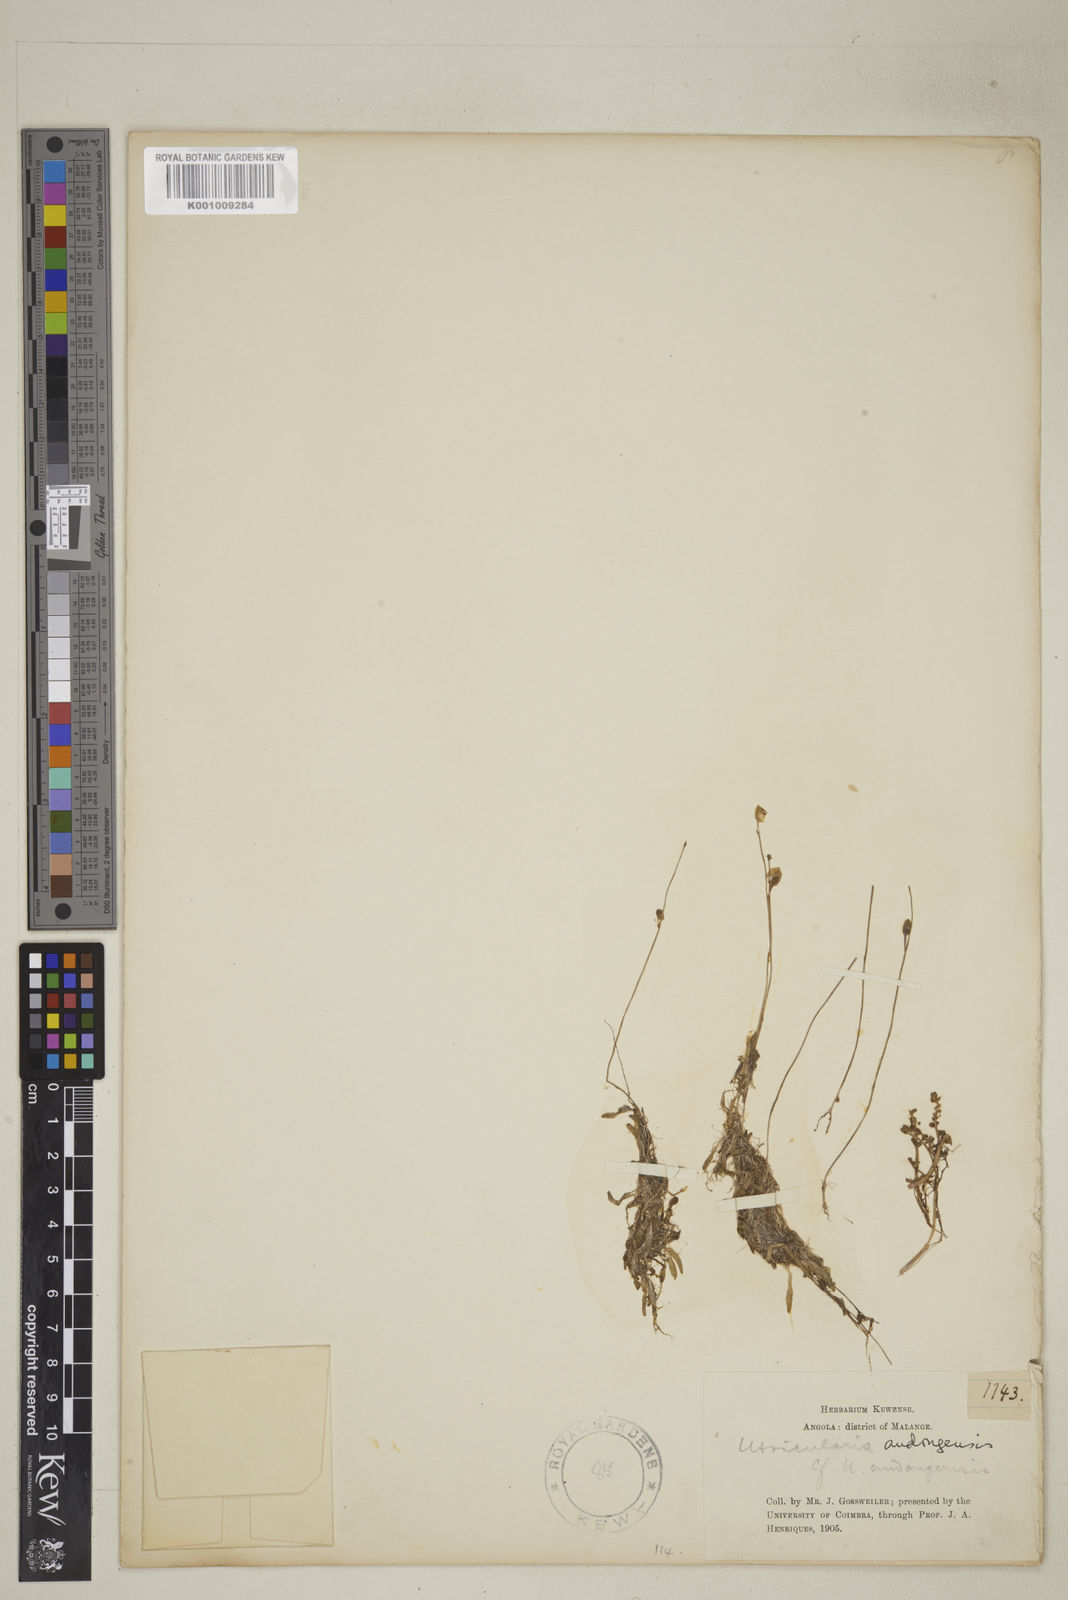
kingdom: Plantae
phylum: Tracheophyta
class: Magnoliopsida
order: Lamiales
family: Lentibulariaceae
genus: Utricularia
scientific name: Utricularia andongensis
